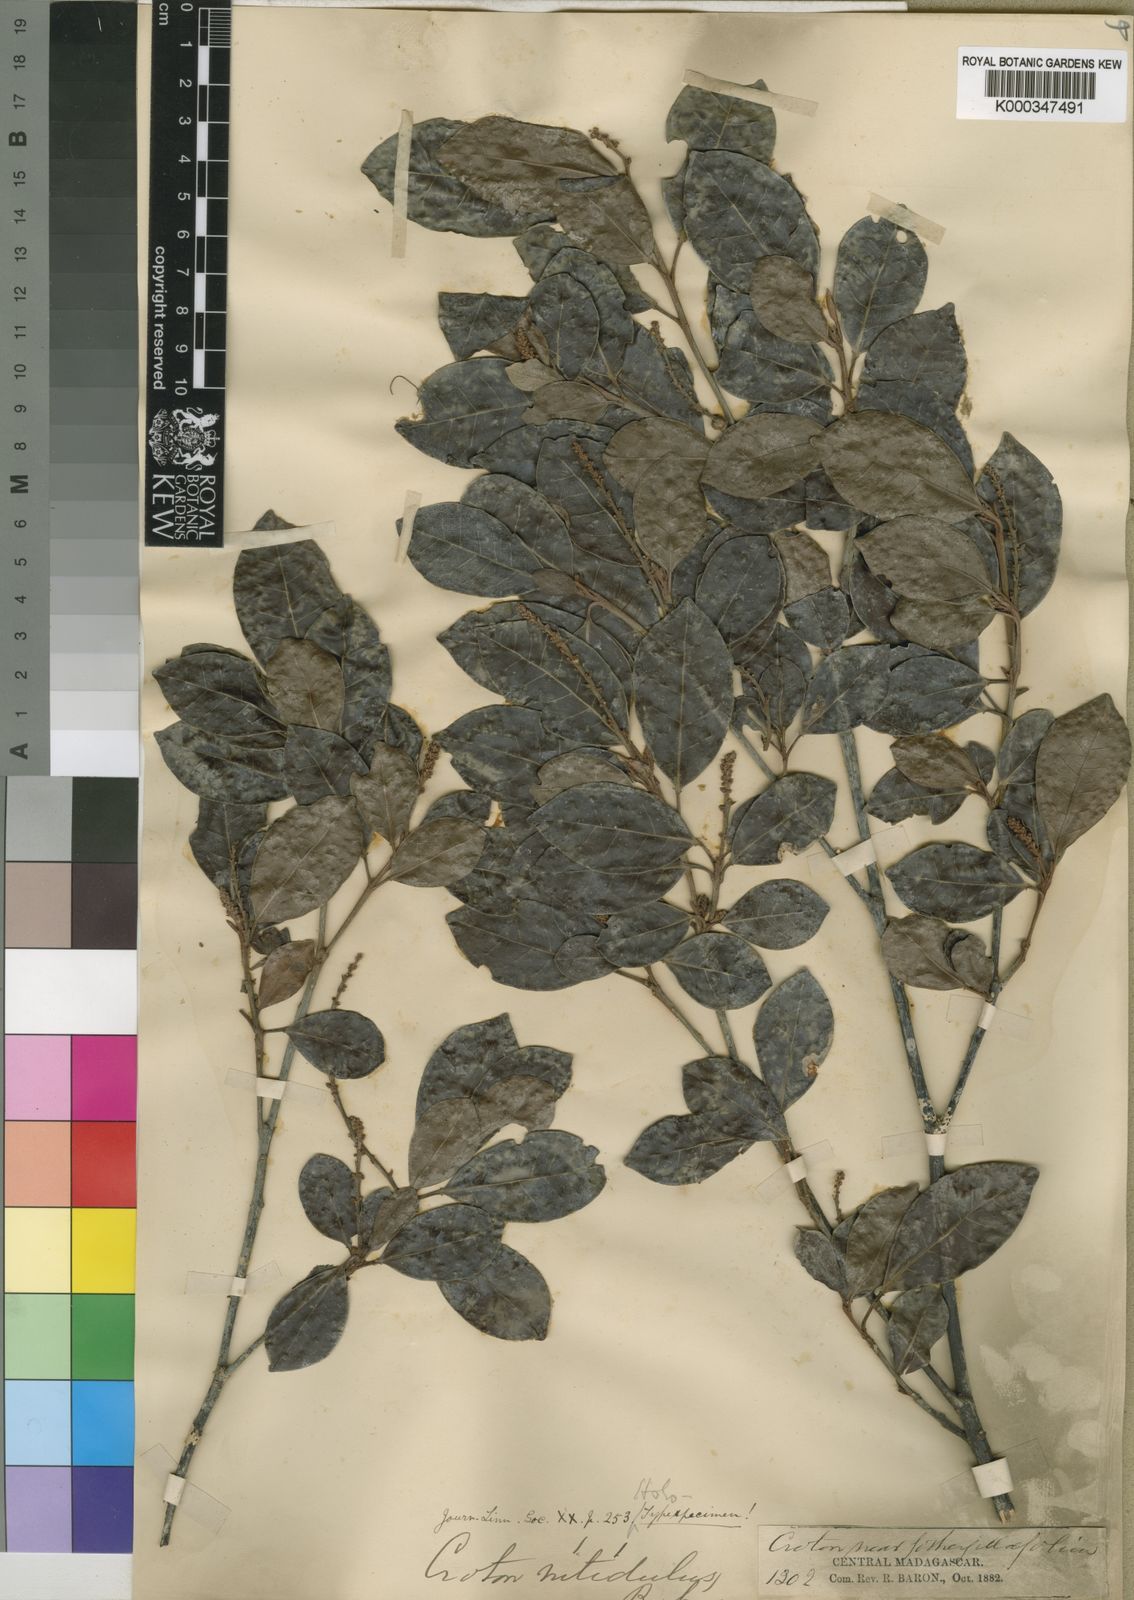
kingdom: Plantae
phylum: Tracheophyta
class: Magnoliopsida
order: Malpighiales
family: Euphorbiaceae
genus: Croton
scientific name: Croton nitidulus
